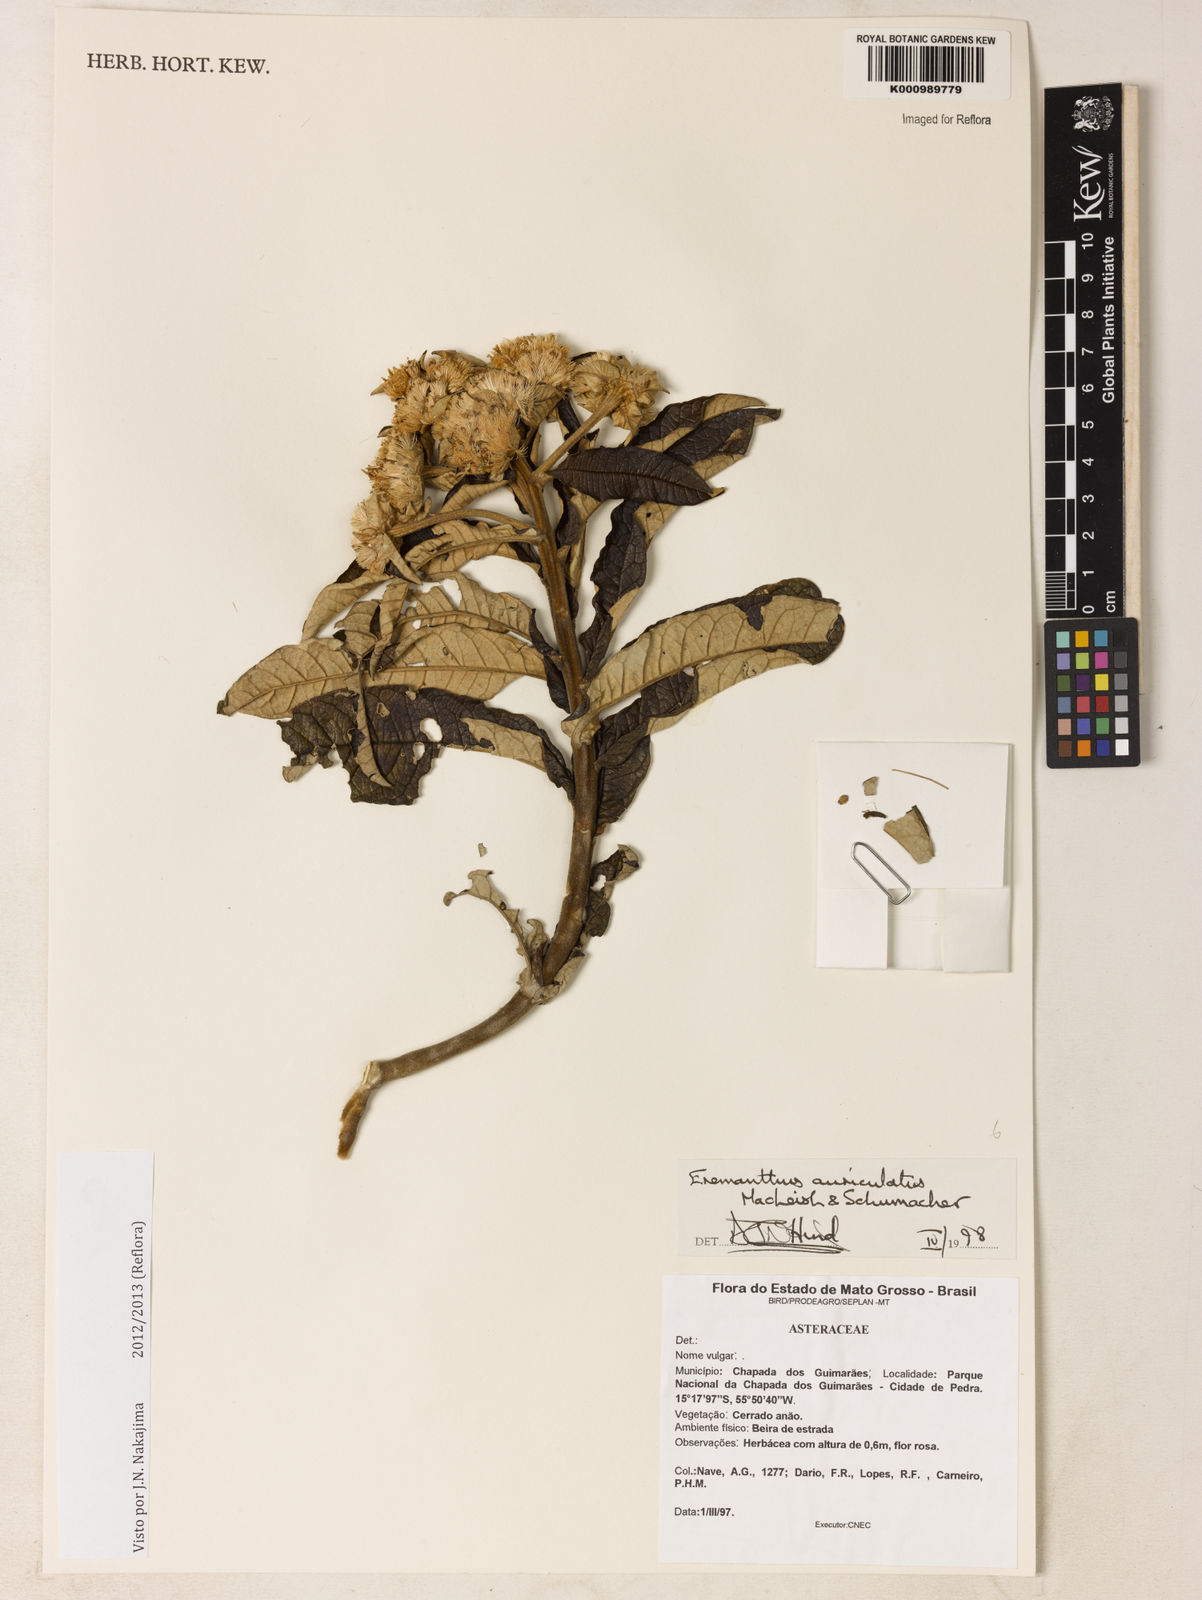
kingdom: Plantae
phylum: Tracheophyta
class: Magnoliopsida
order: Asterales
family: Asteraceae
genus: Eremanthus
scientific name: Eremanthus auriculatus
